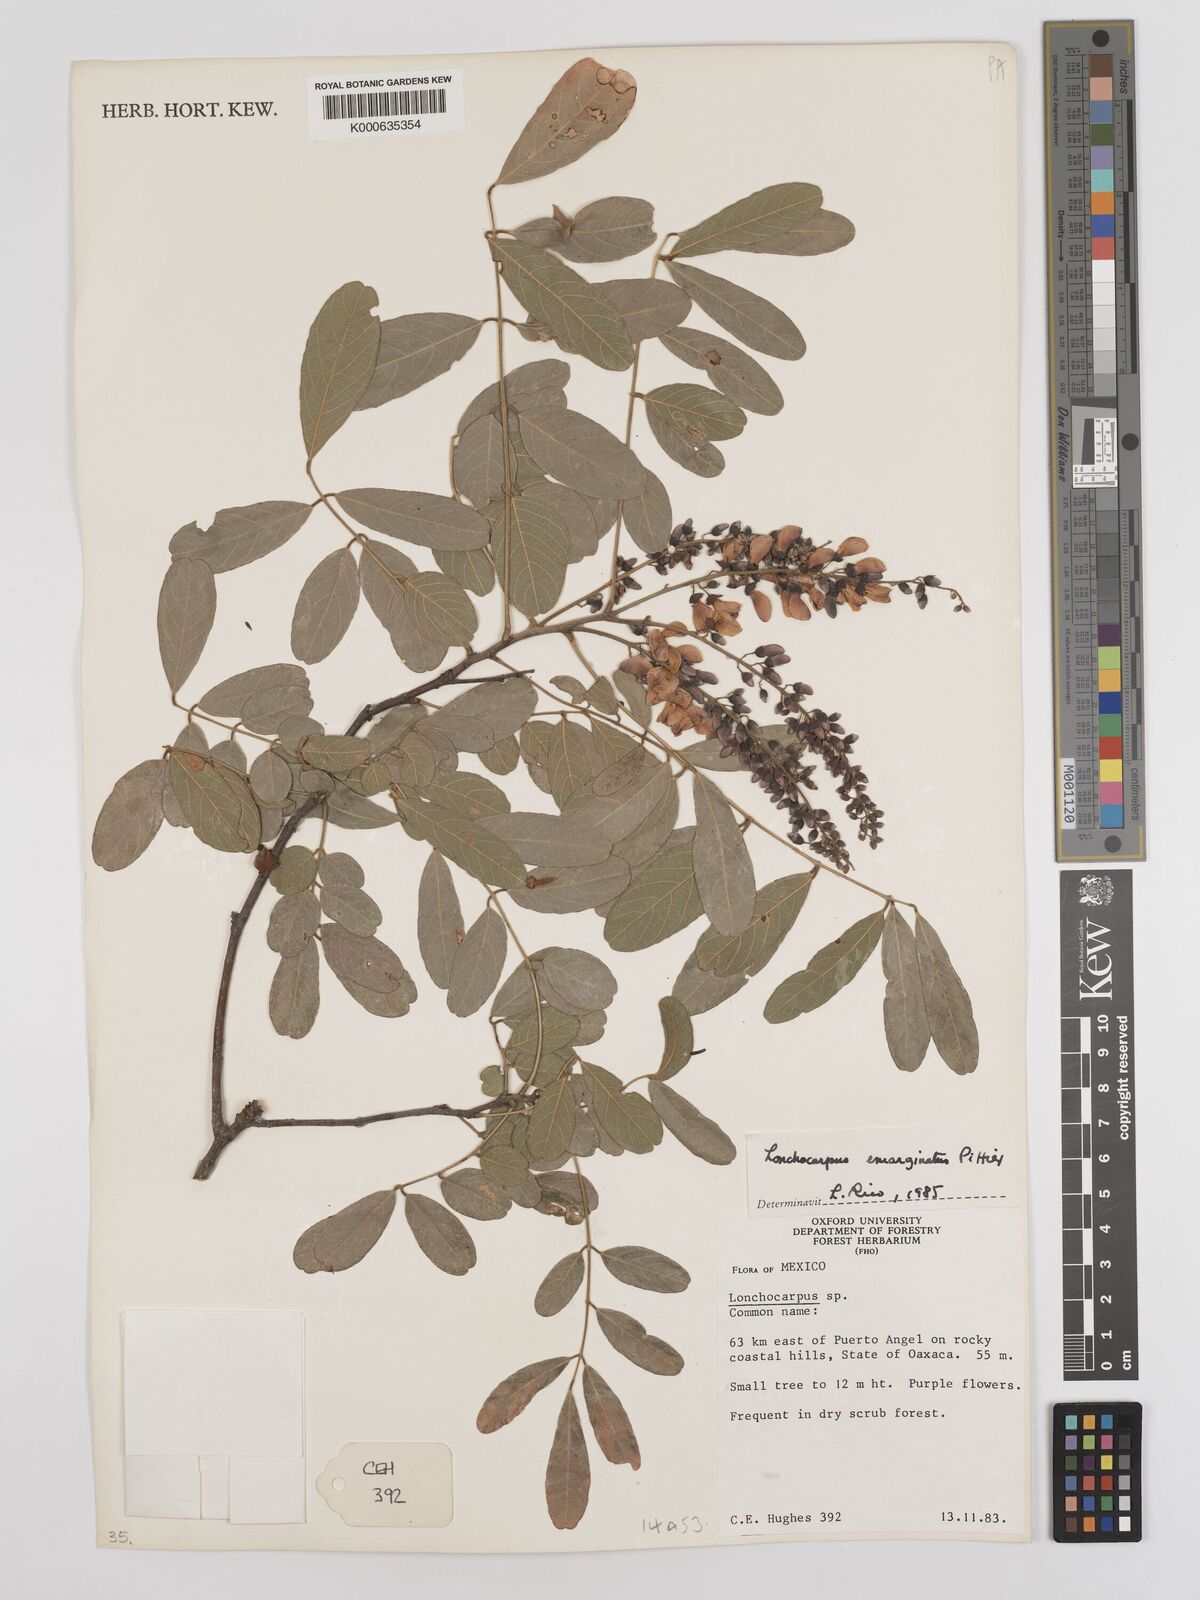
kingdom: Plantae
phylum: Tracheophyta
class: Magnoliopsida
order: Fabales
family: Fabaceae
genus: Lonchocarpus
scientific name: Lonchocarpus emarginatus
